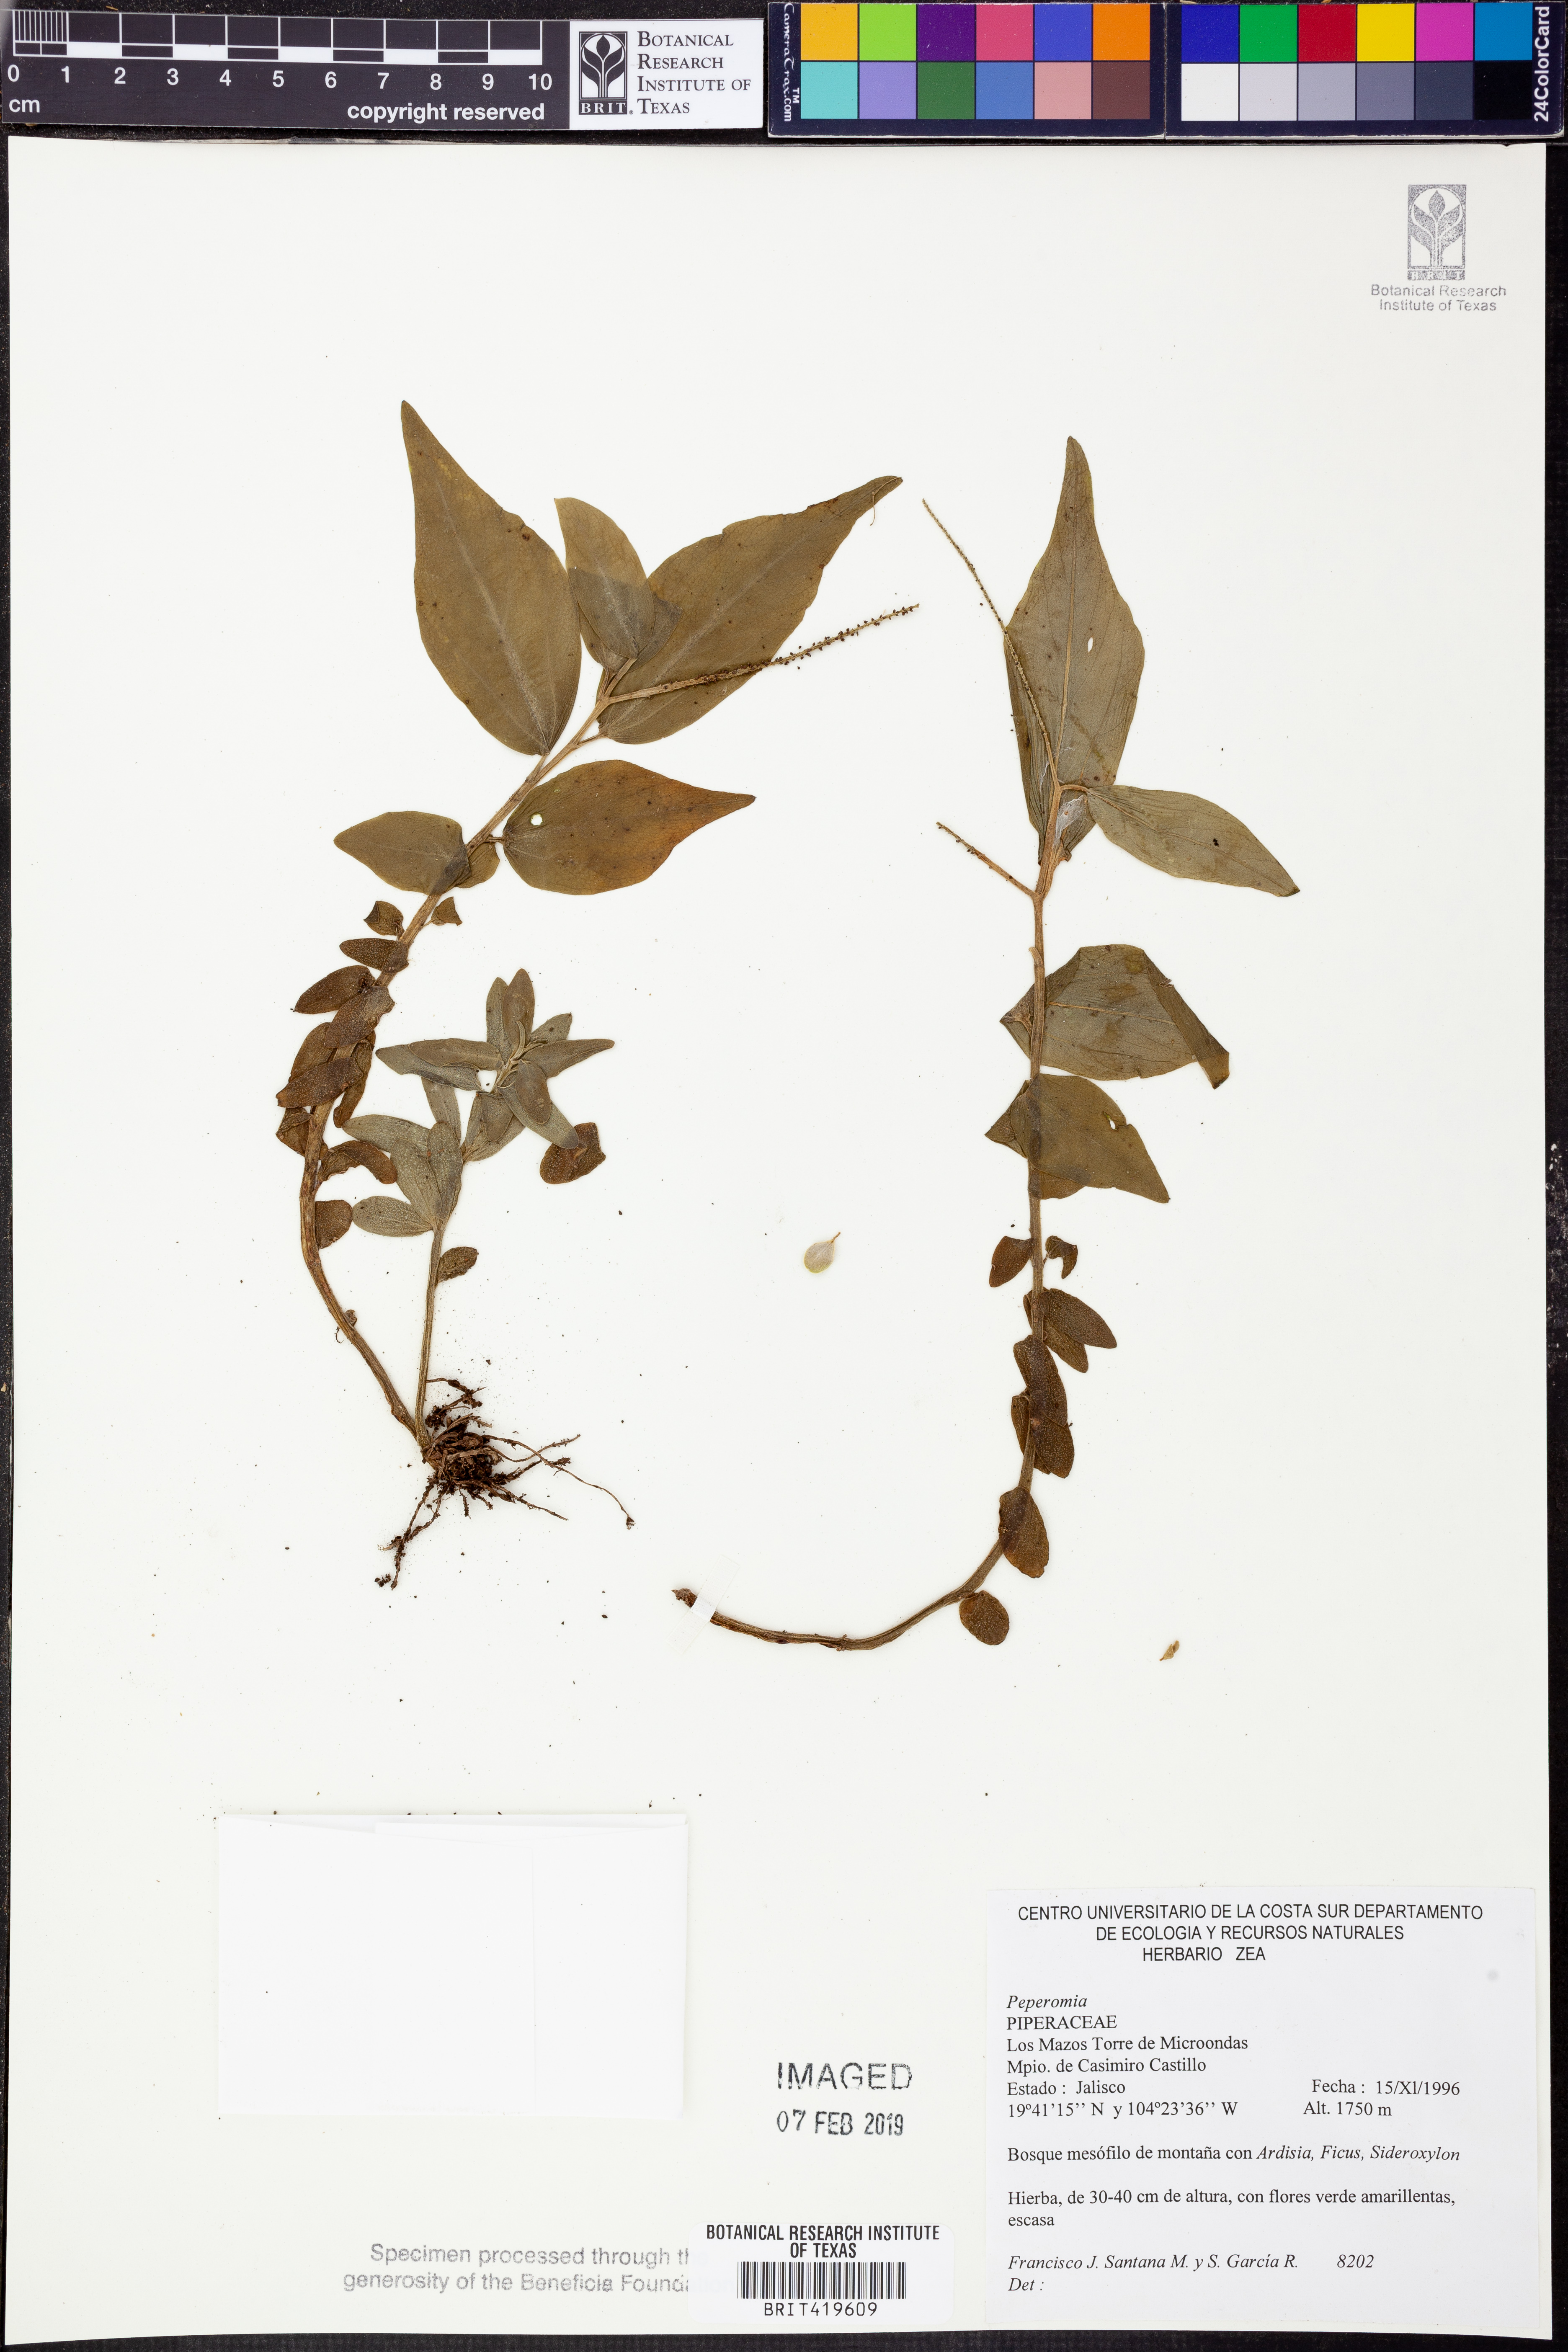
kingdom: Plantae
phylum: Tracheophyta
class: Magnoliopsida
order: Piperales
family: Piperaceae
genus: Peperomia
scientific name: Peperomia
